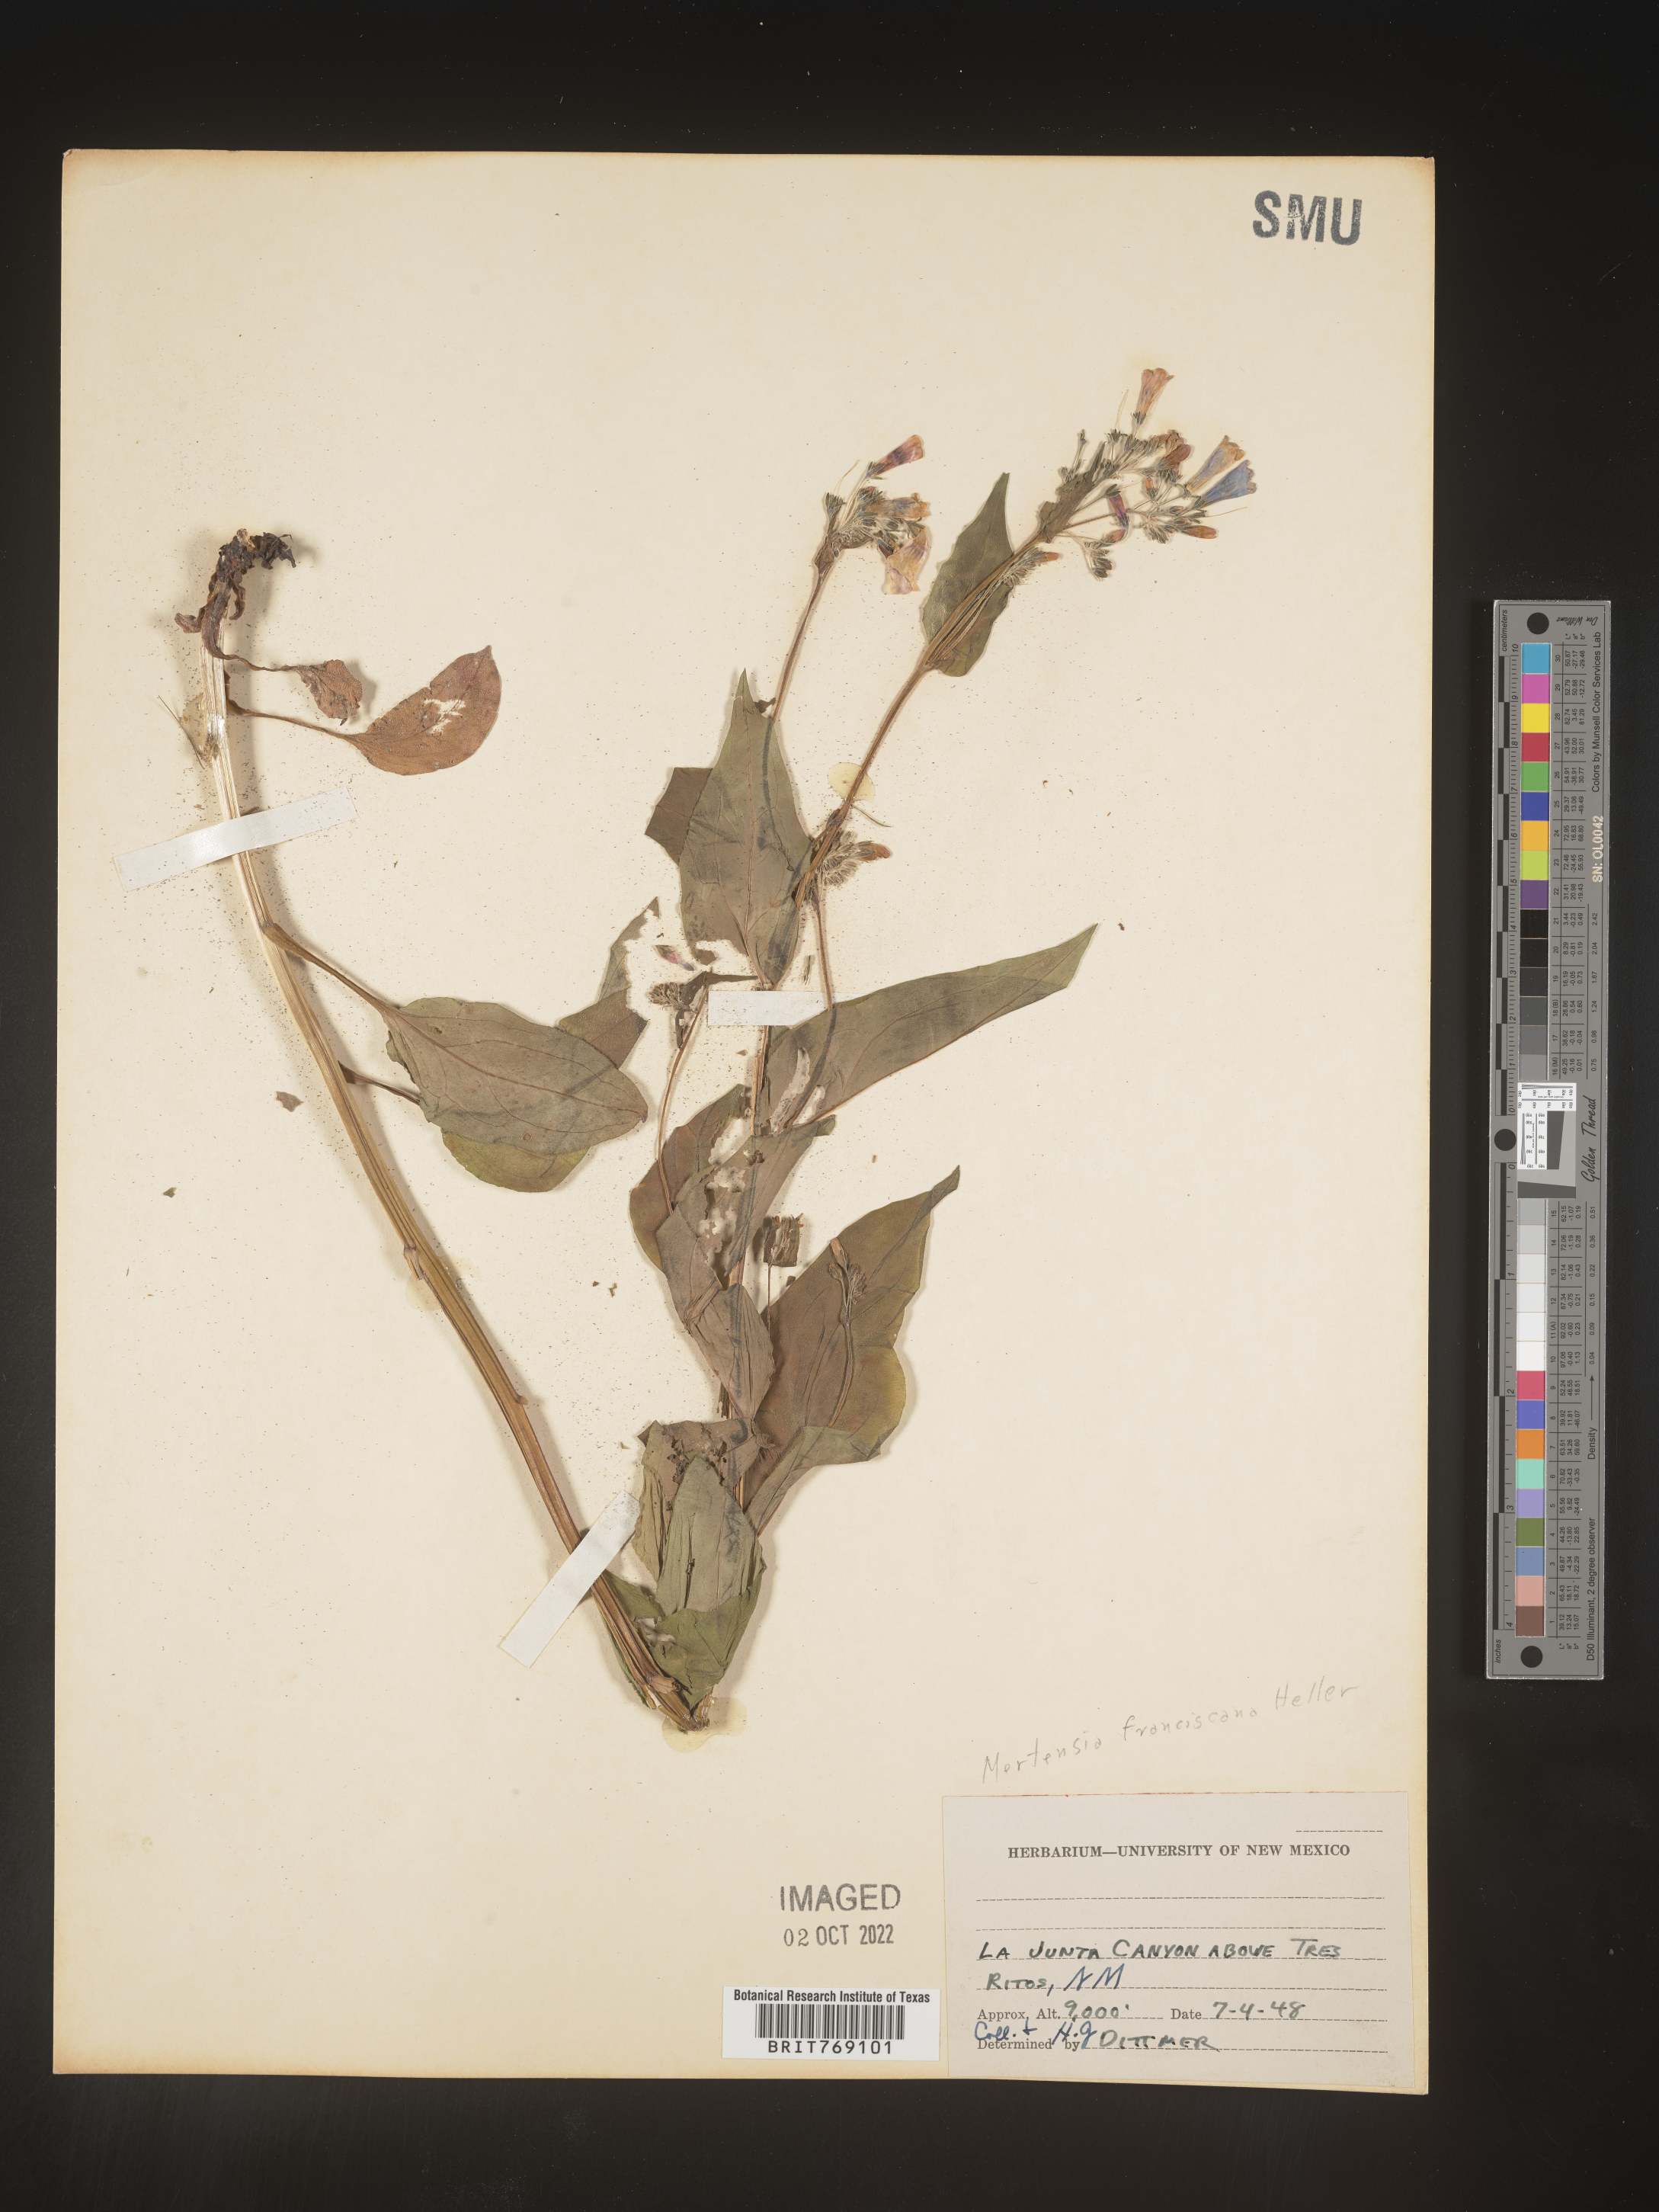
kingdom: Plantae
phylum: Tracheophyta
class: Magnoliopsida
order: Boraginales
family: Boraginaceae
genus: Mertensia
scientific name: Mertensia
